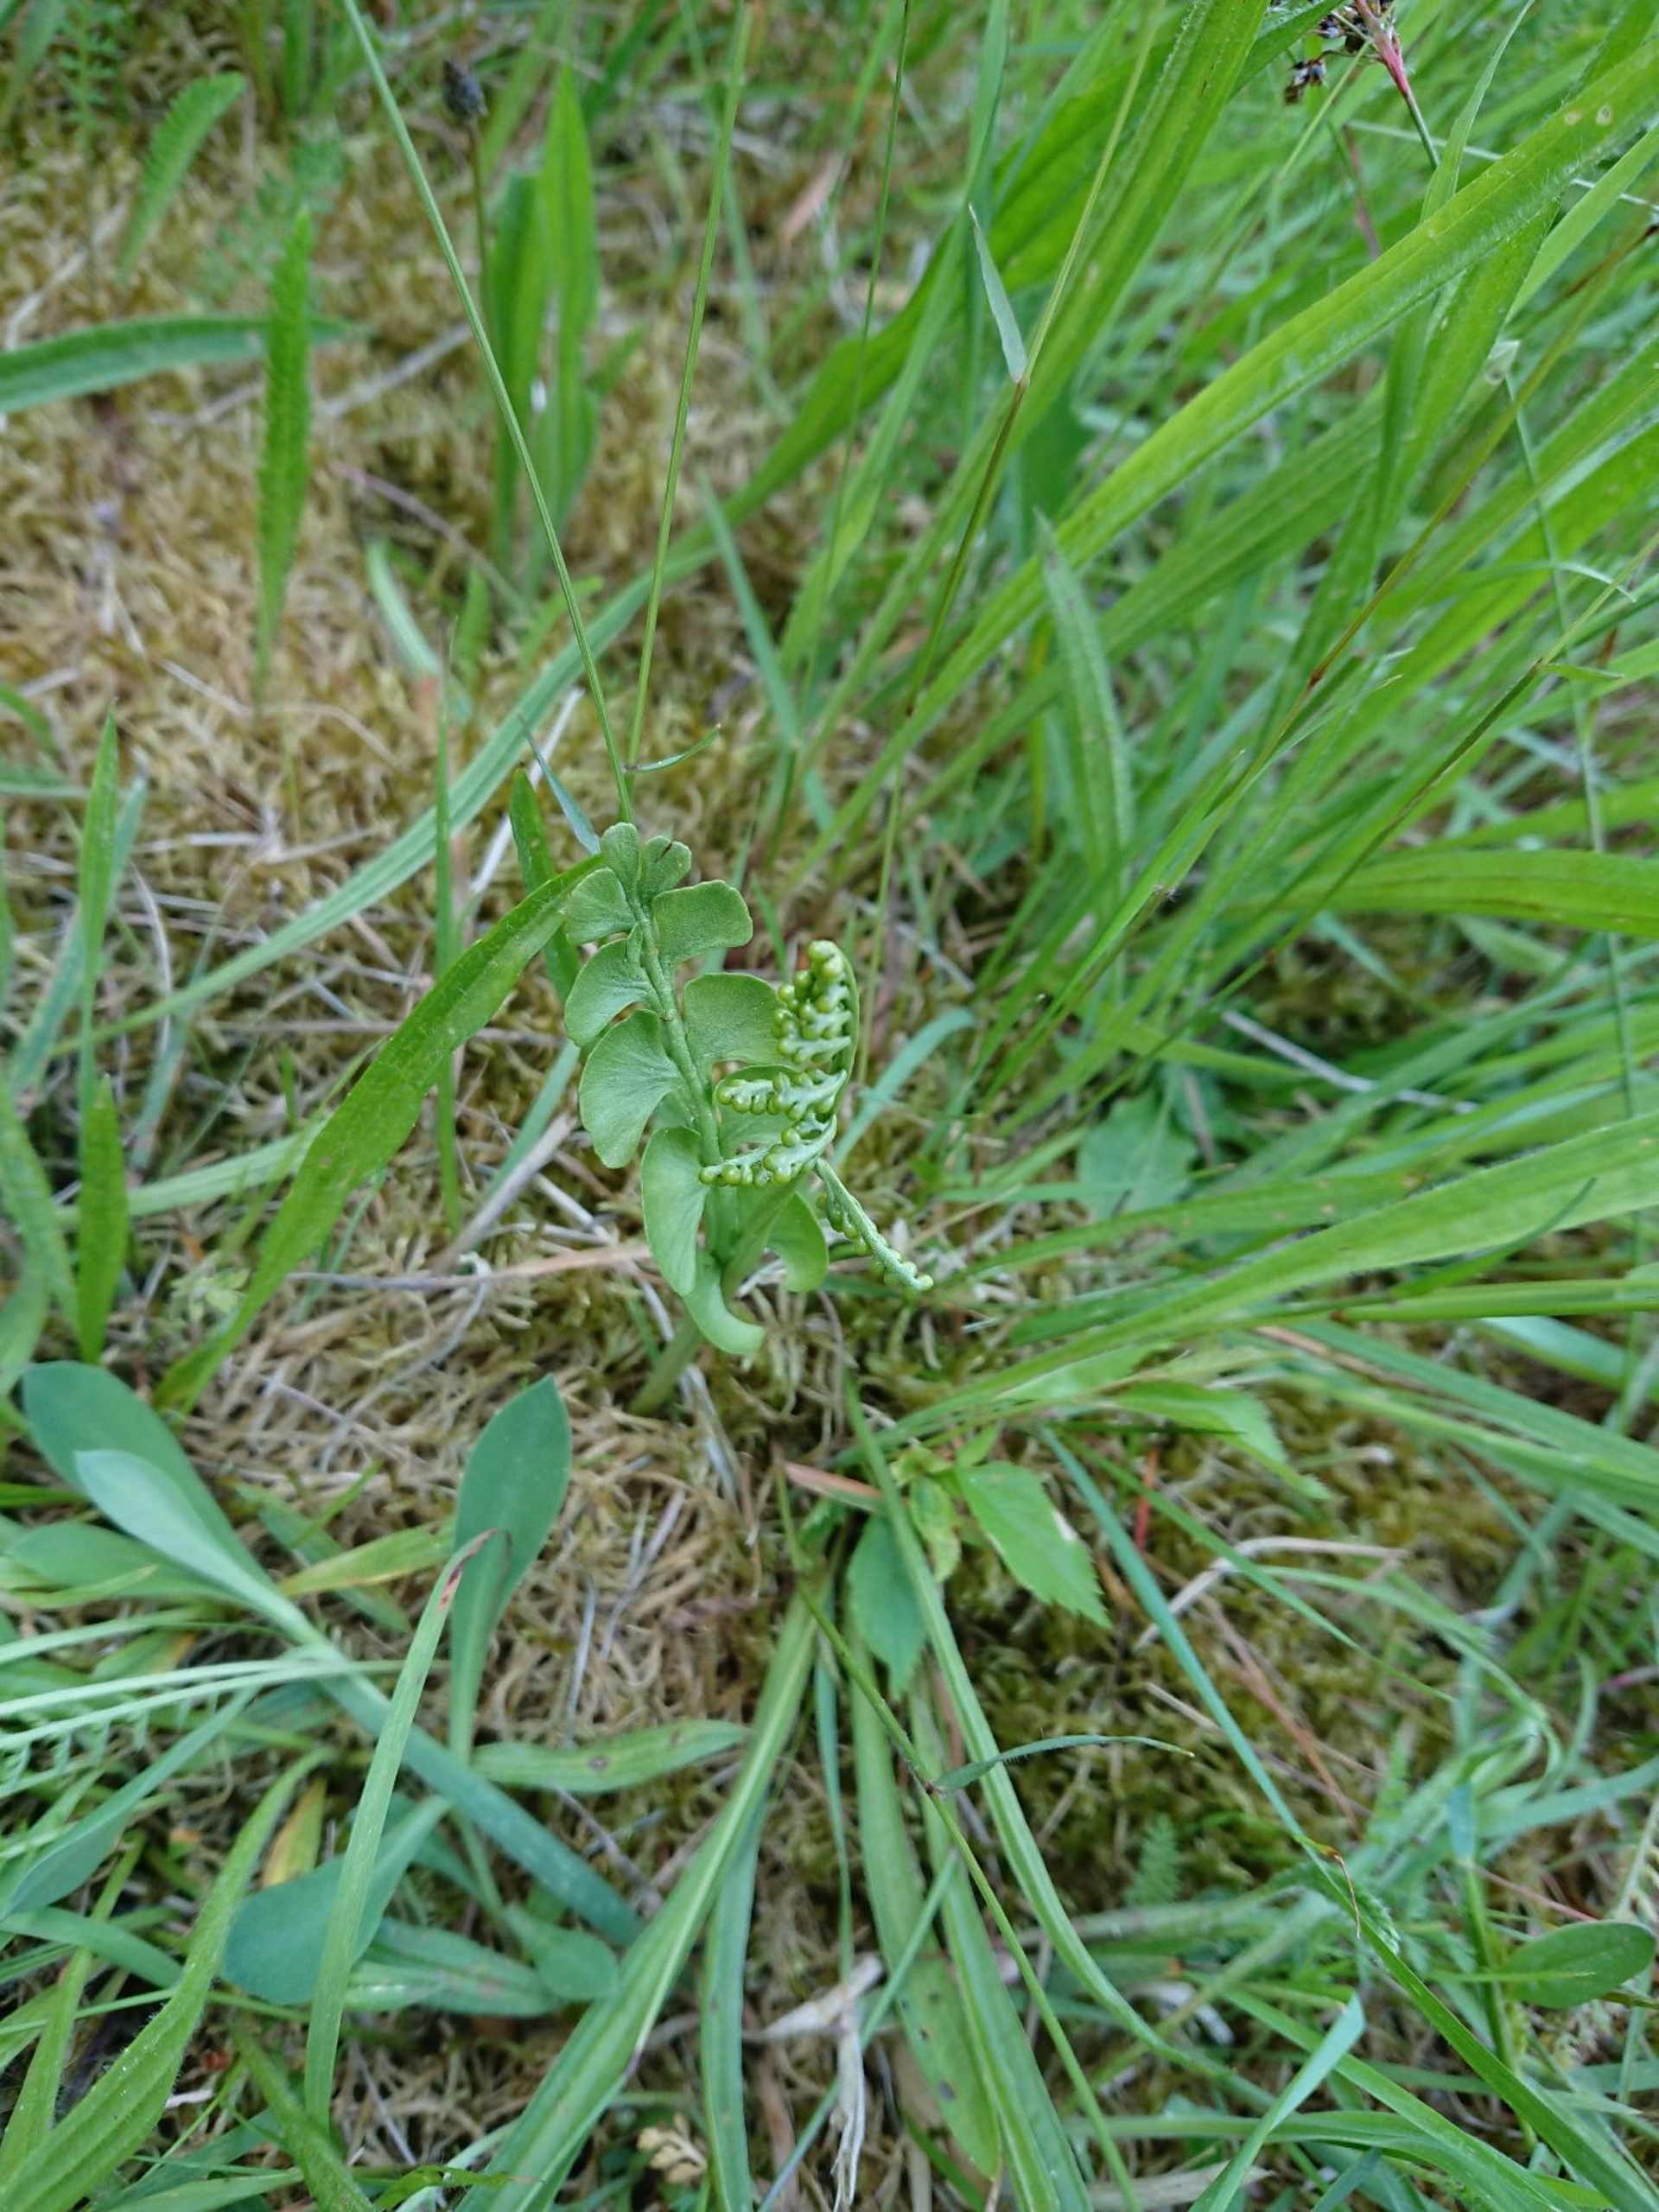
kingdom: Plantae
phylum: Tracheophyta
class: Polypodiopsida
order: Ophioglossales
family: Ophioglossaceae
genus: Botrychium
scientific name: Botrychium lunaria
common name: Almindelig månerude
